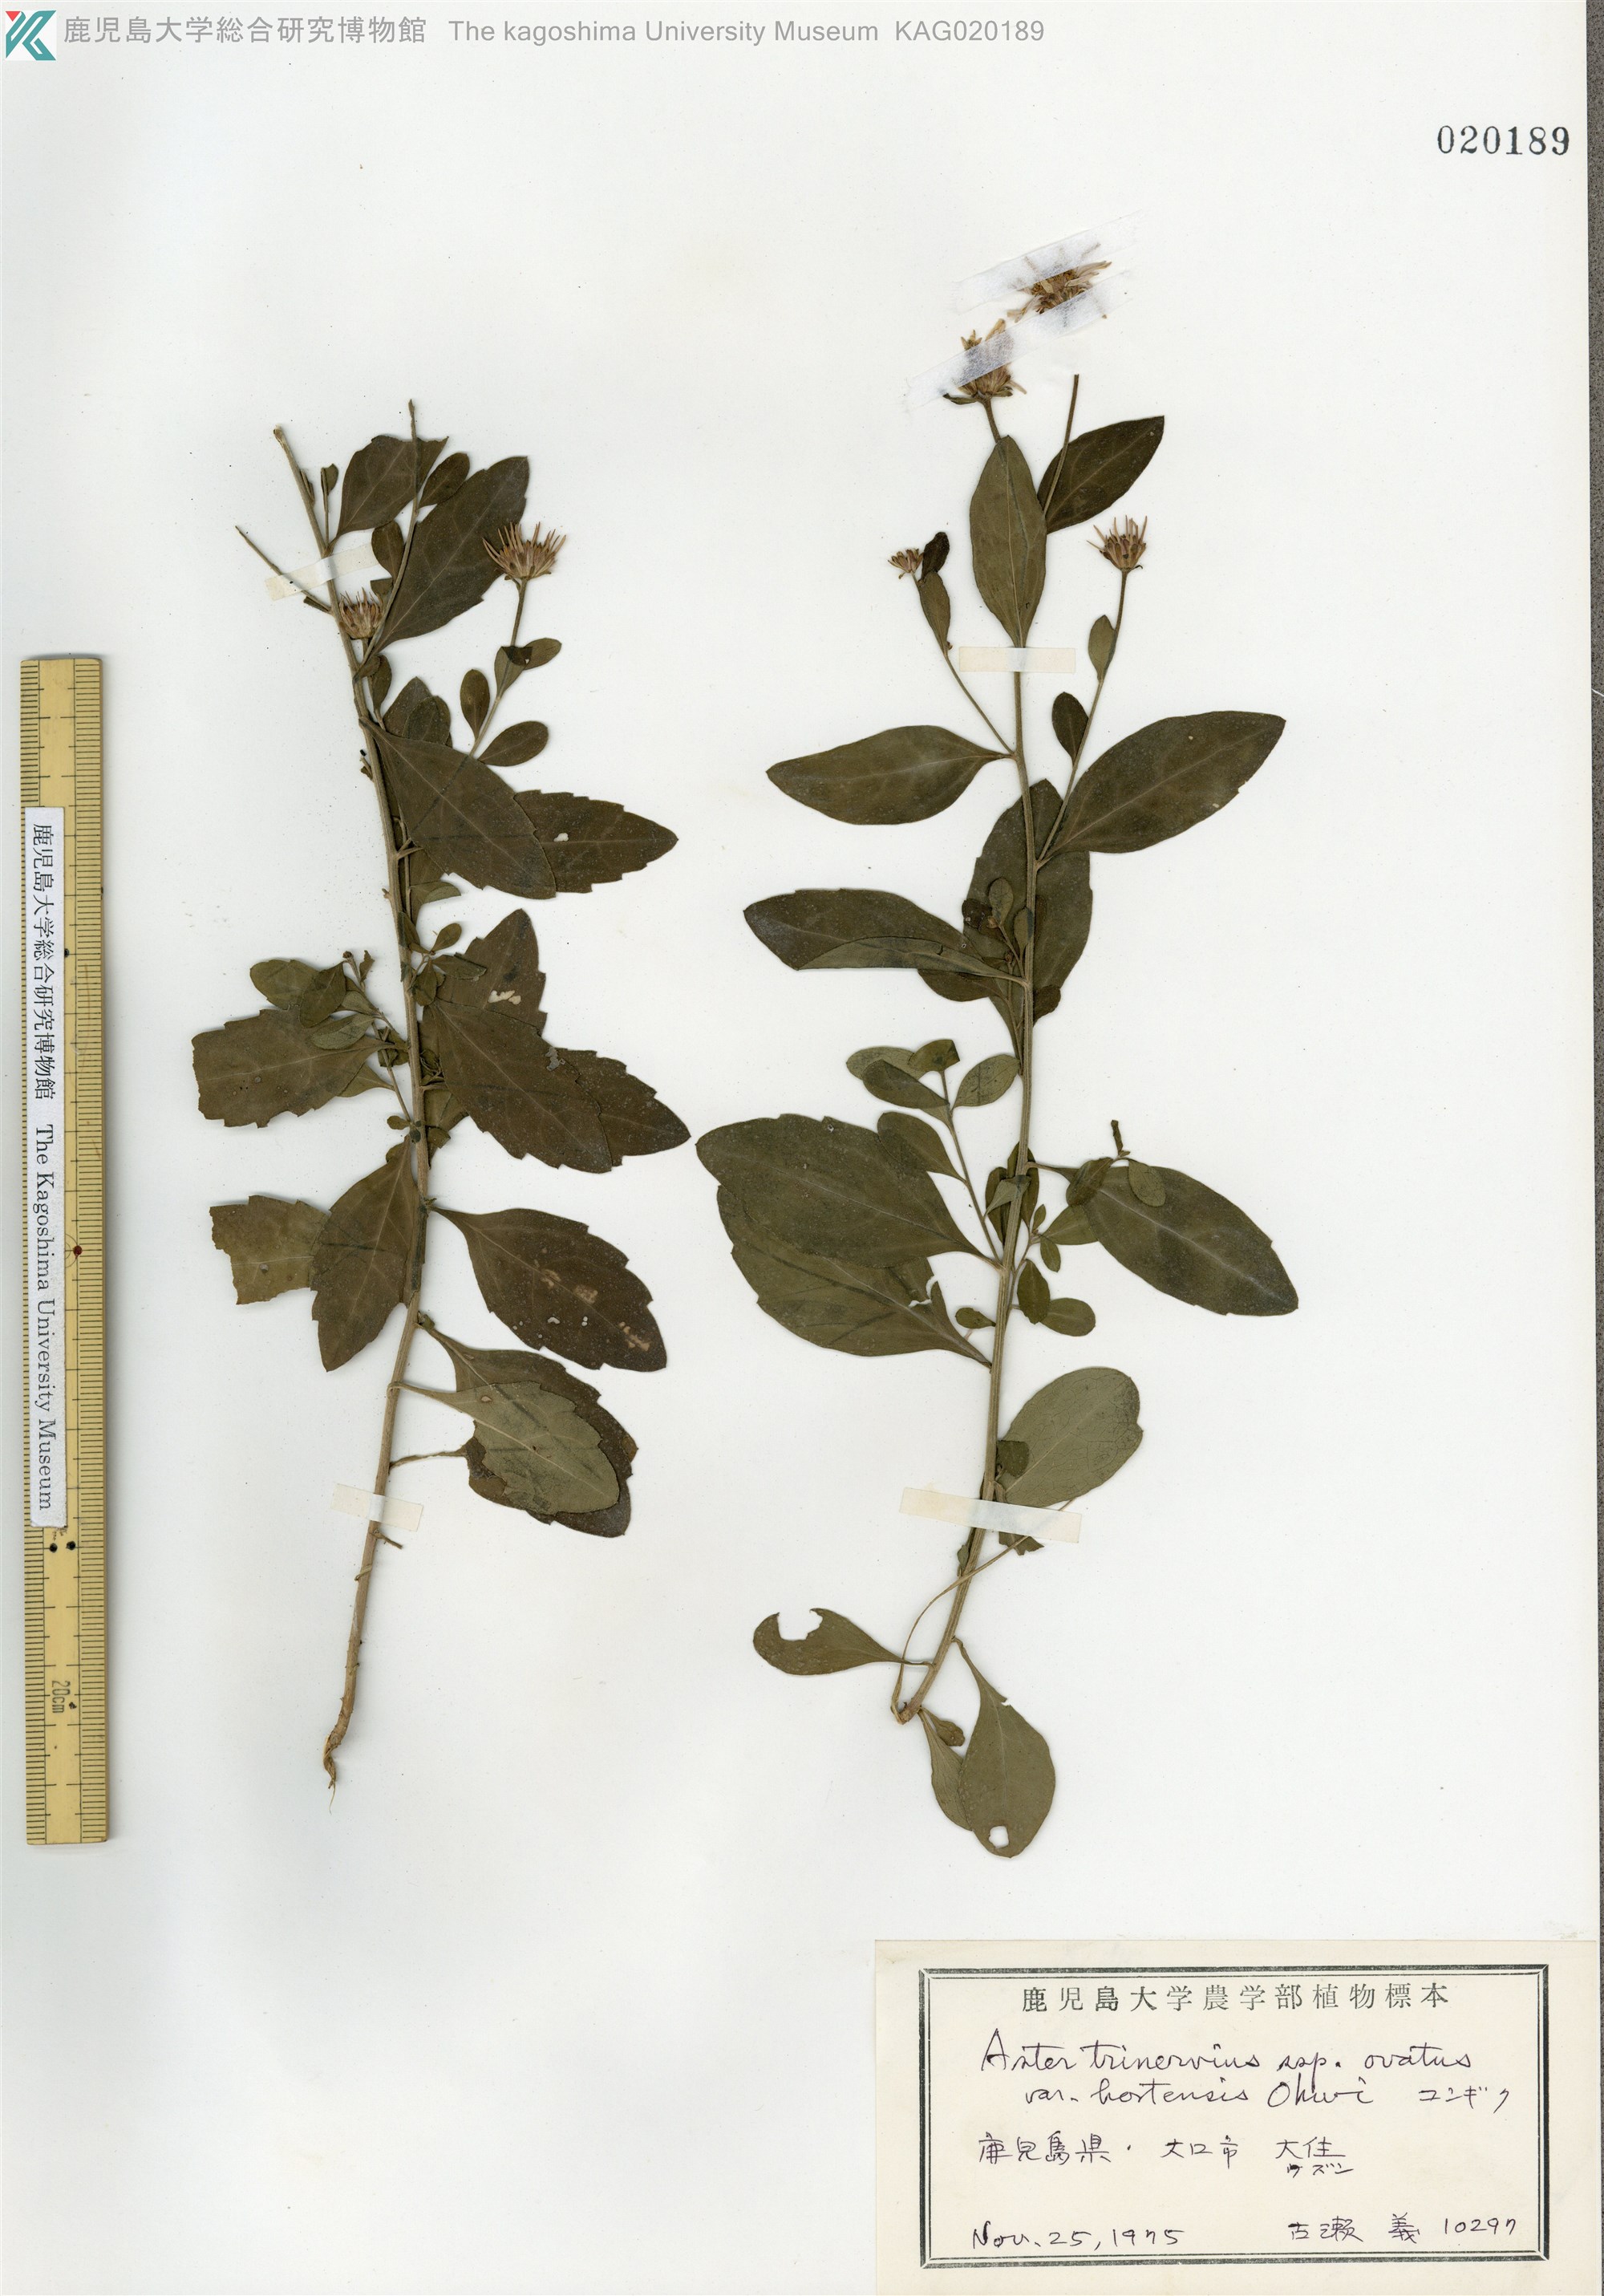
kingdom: Plantae
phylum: Tracheophyta
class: Magnoliopsida
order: Asterales
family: Asteraceae
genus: Aster
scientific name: Aster microcephalus
